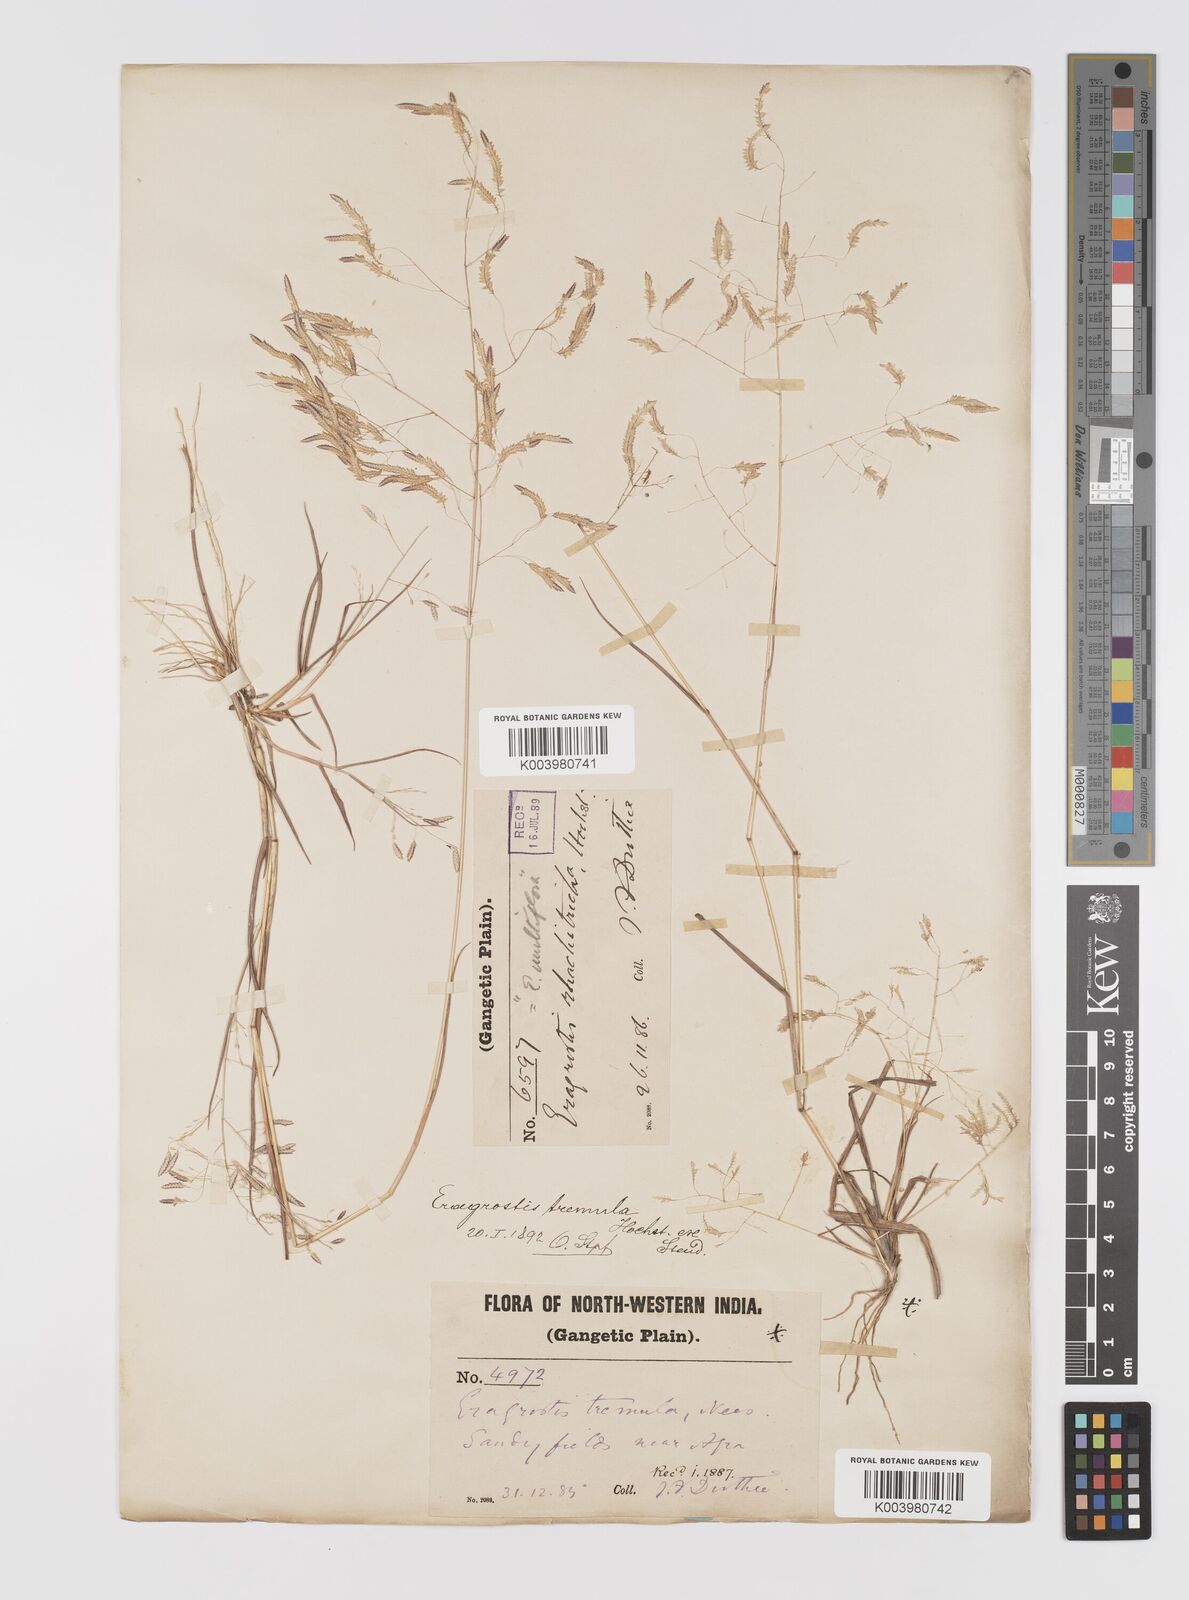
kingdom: Plantae
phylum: Tracheophyta
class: Liliopsida
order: Poales
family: Poaceae
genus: Eragrostis
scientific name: Eragrostis tremula
